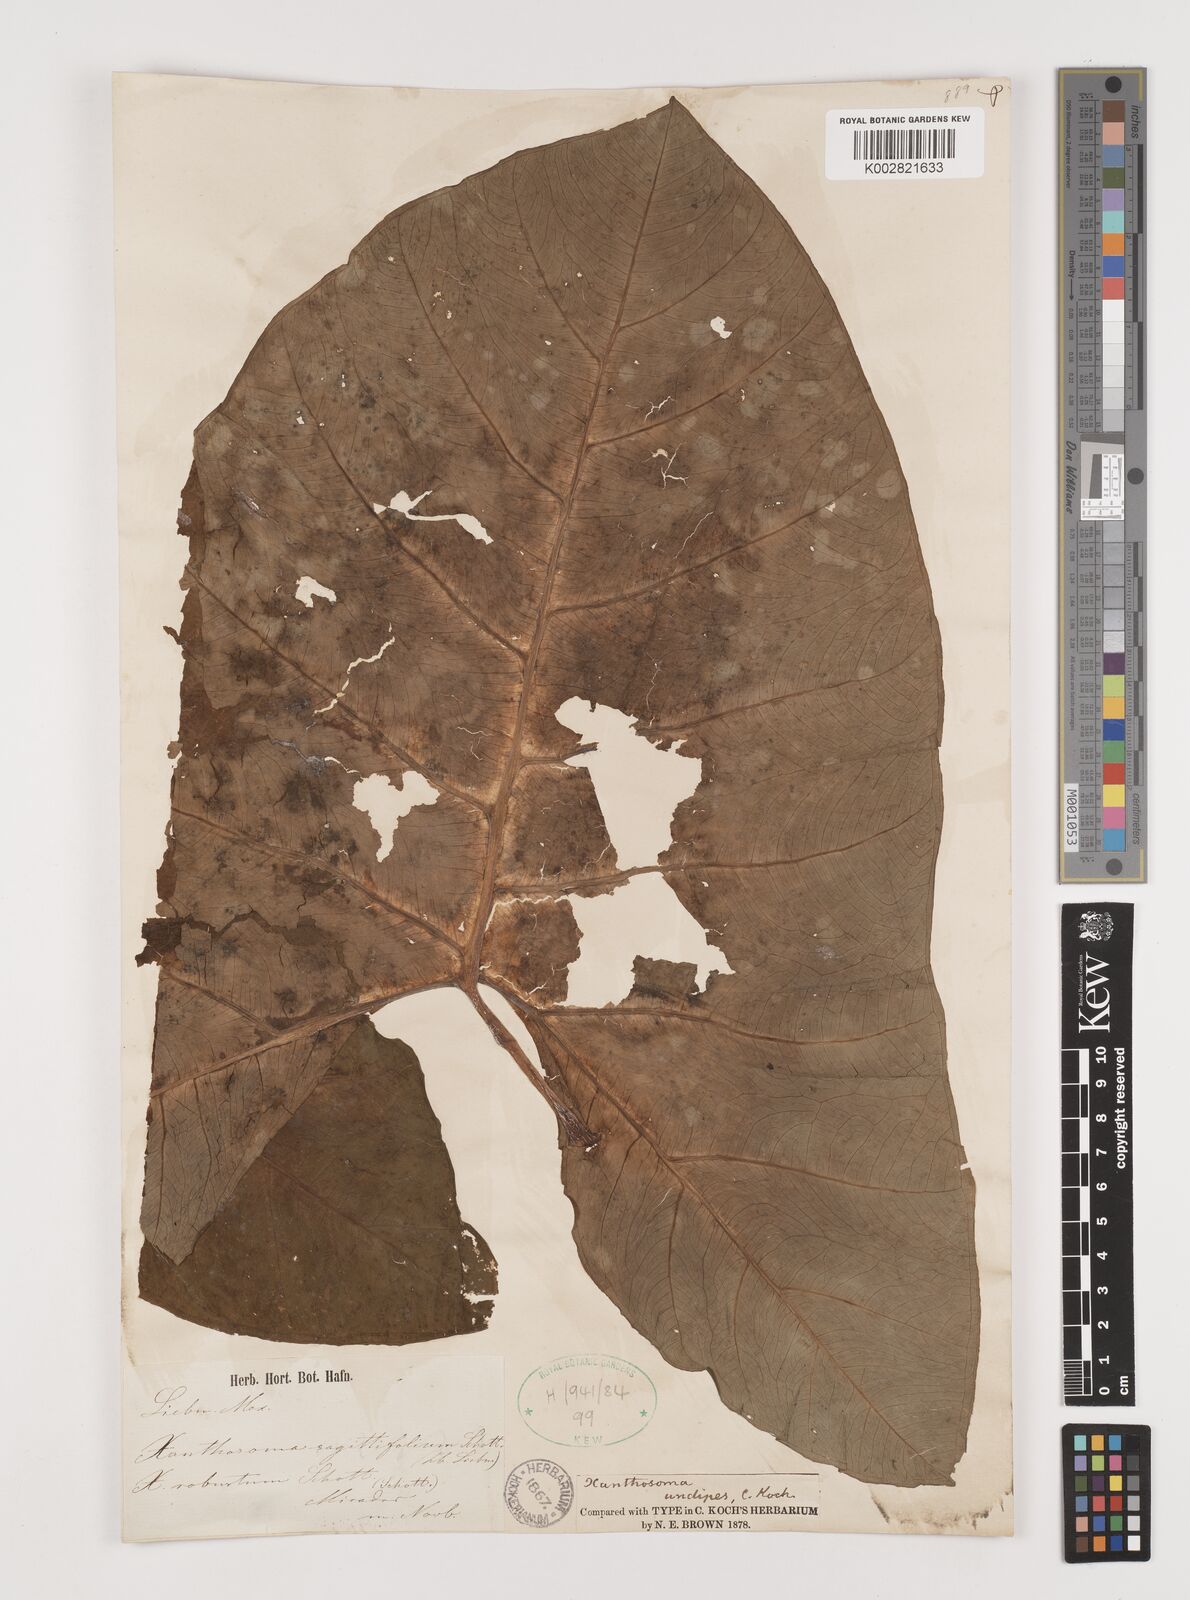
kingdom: Plantae
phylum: Tracheophyta
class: Liliopsida
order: Alismatales
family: Araceae
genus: Xanthosoma
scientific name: Xanthosoma undipes
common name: Tall elephant's ear
